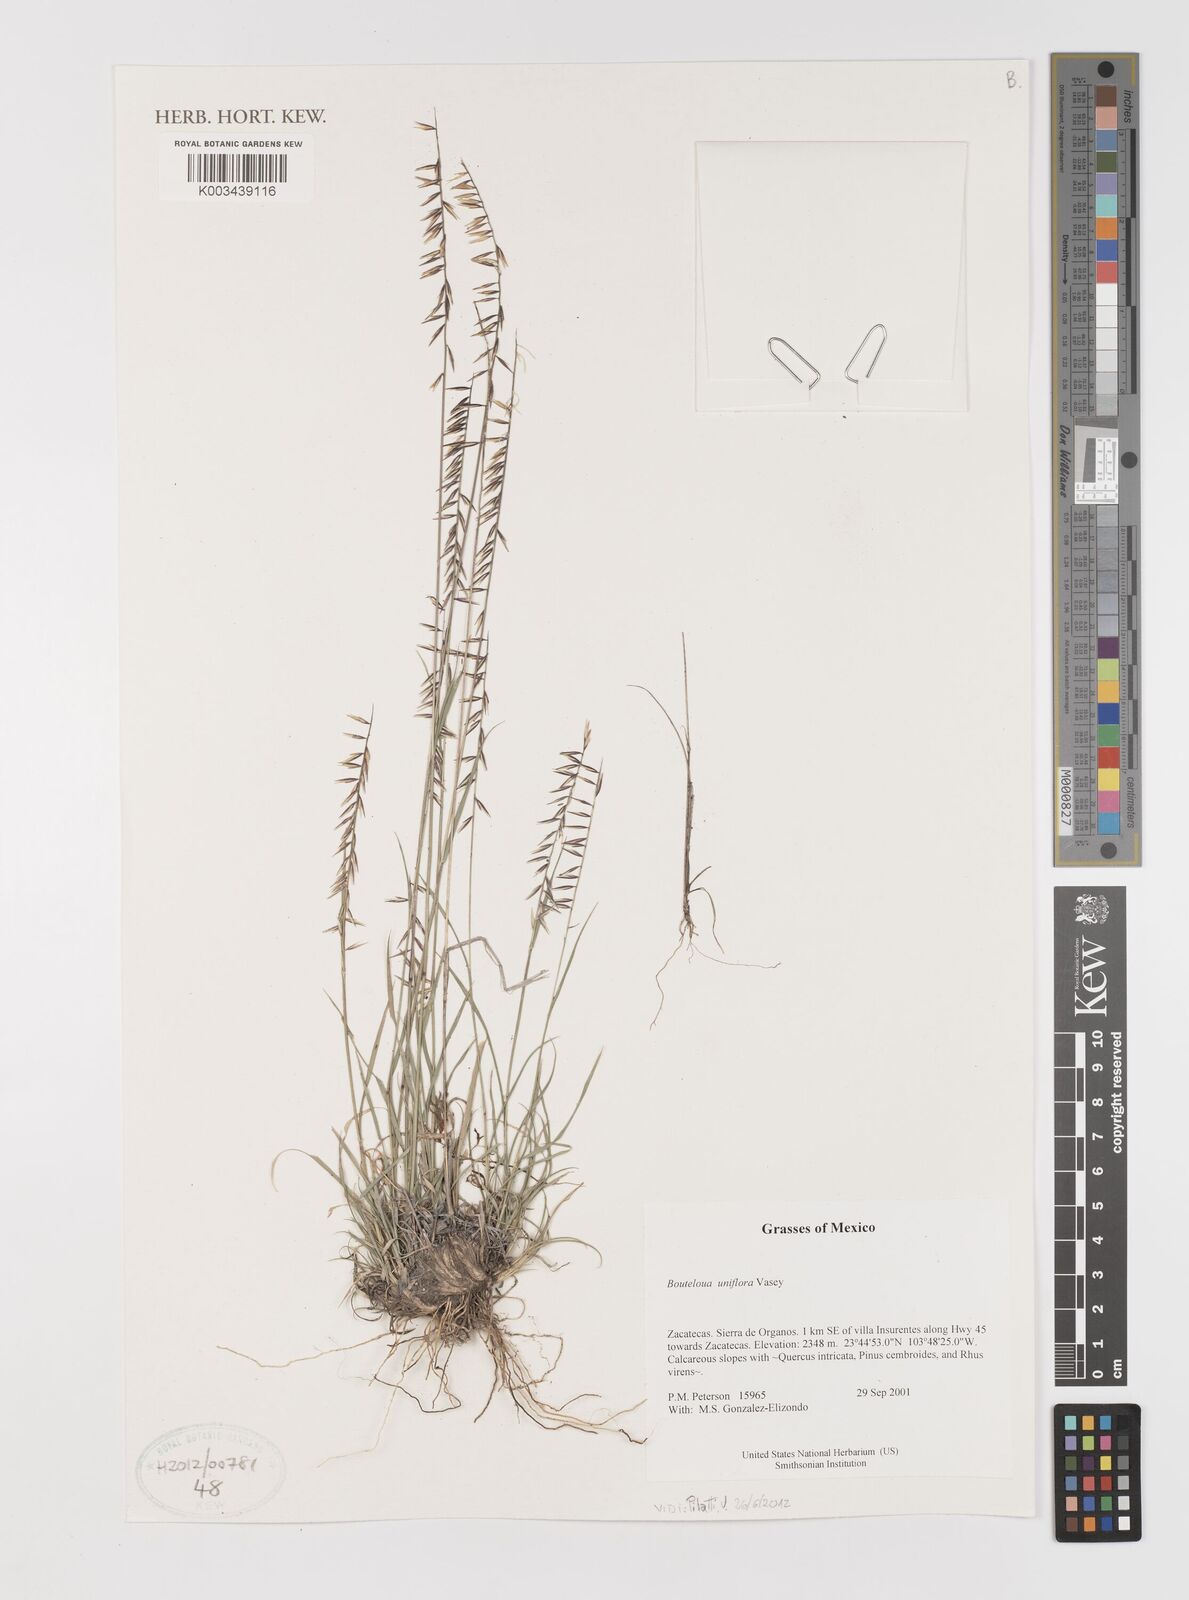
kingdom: Plantae
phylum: Tracheophyta
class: Liliopsida
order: Poales
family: Poaceae
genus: Bouteloua
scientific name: Bouteloua uniflora
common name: Neally's grama
